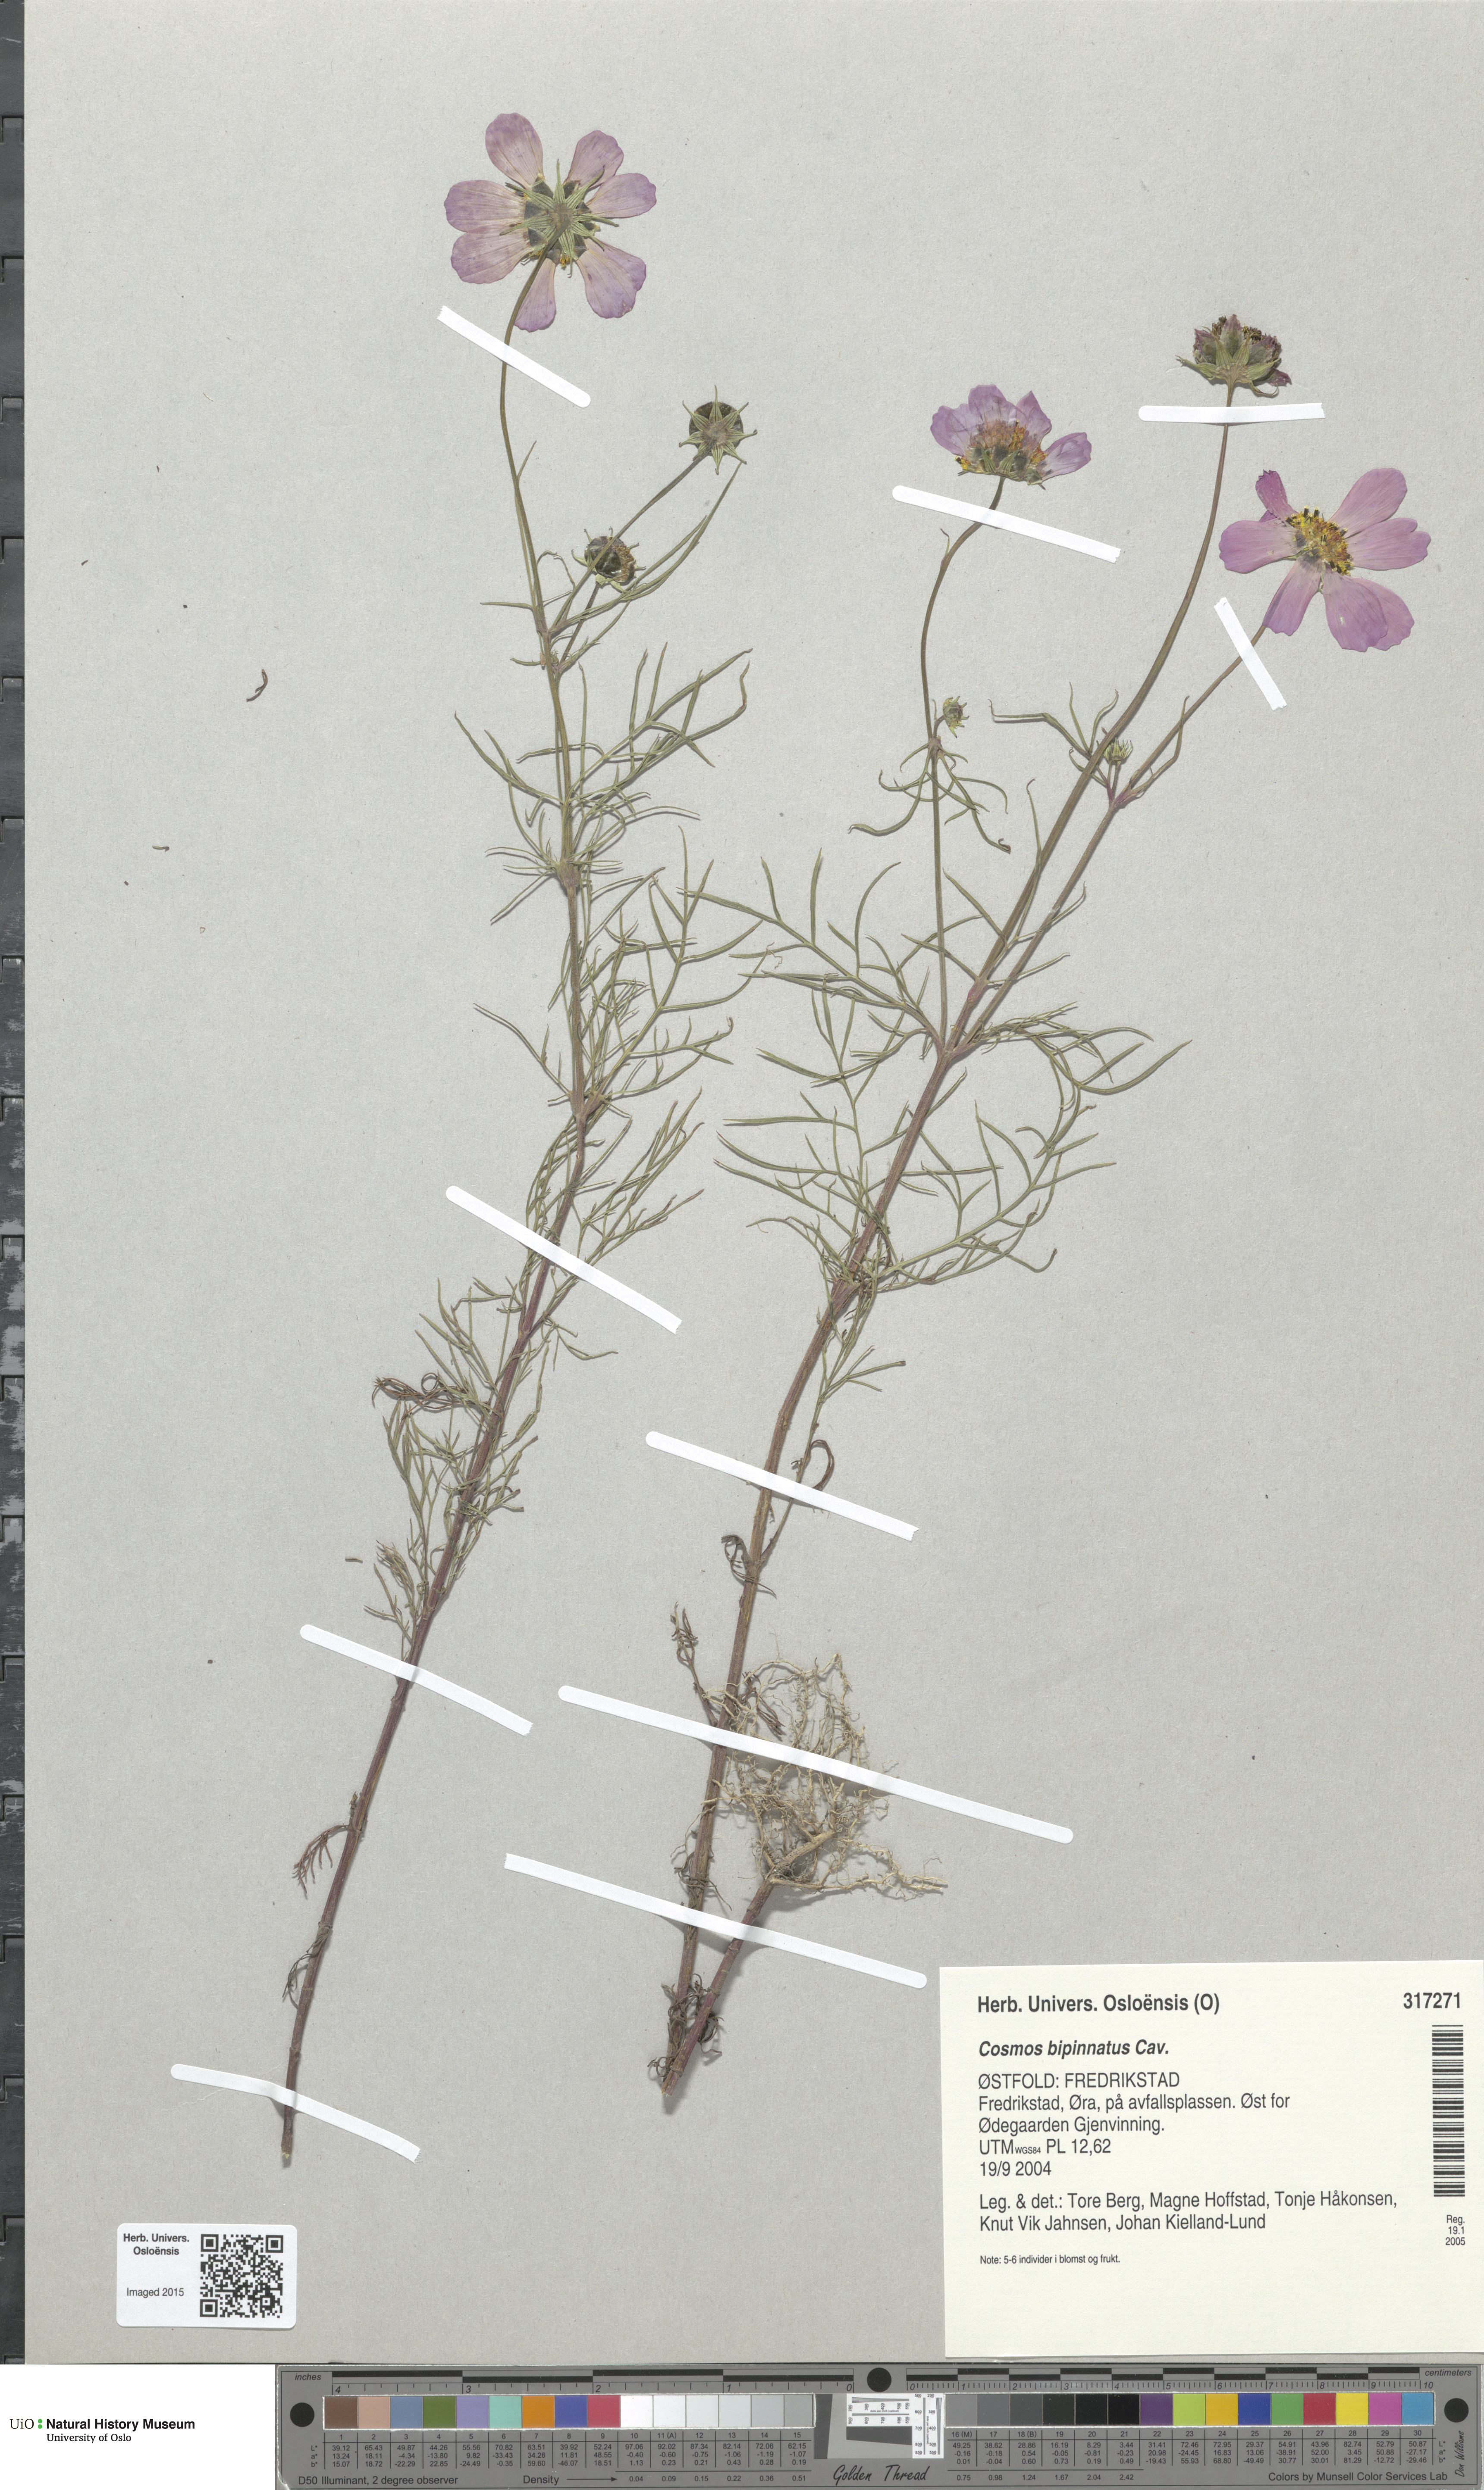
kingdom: Plantae
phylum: Tracheophyta
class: Magnoliopsida
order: Asterales
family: Asteraceae
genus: Cosmos
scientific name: Cosmos bipinnatus
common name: Garden cosmos
